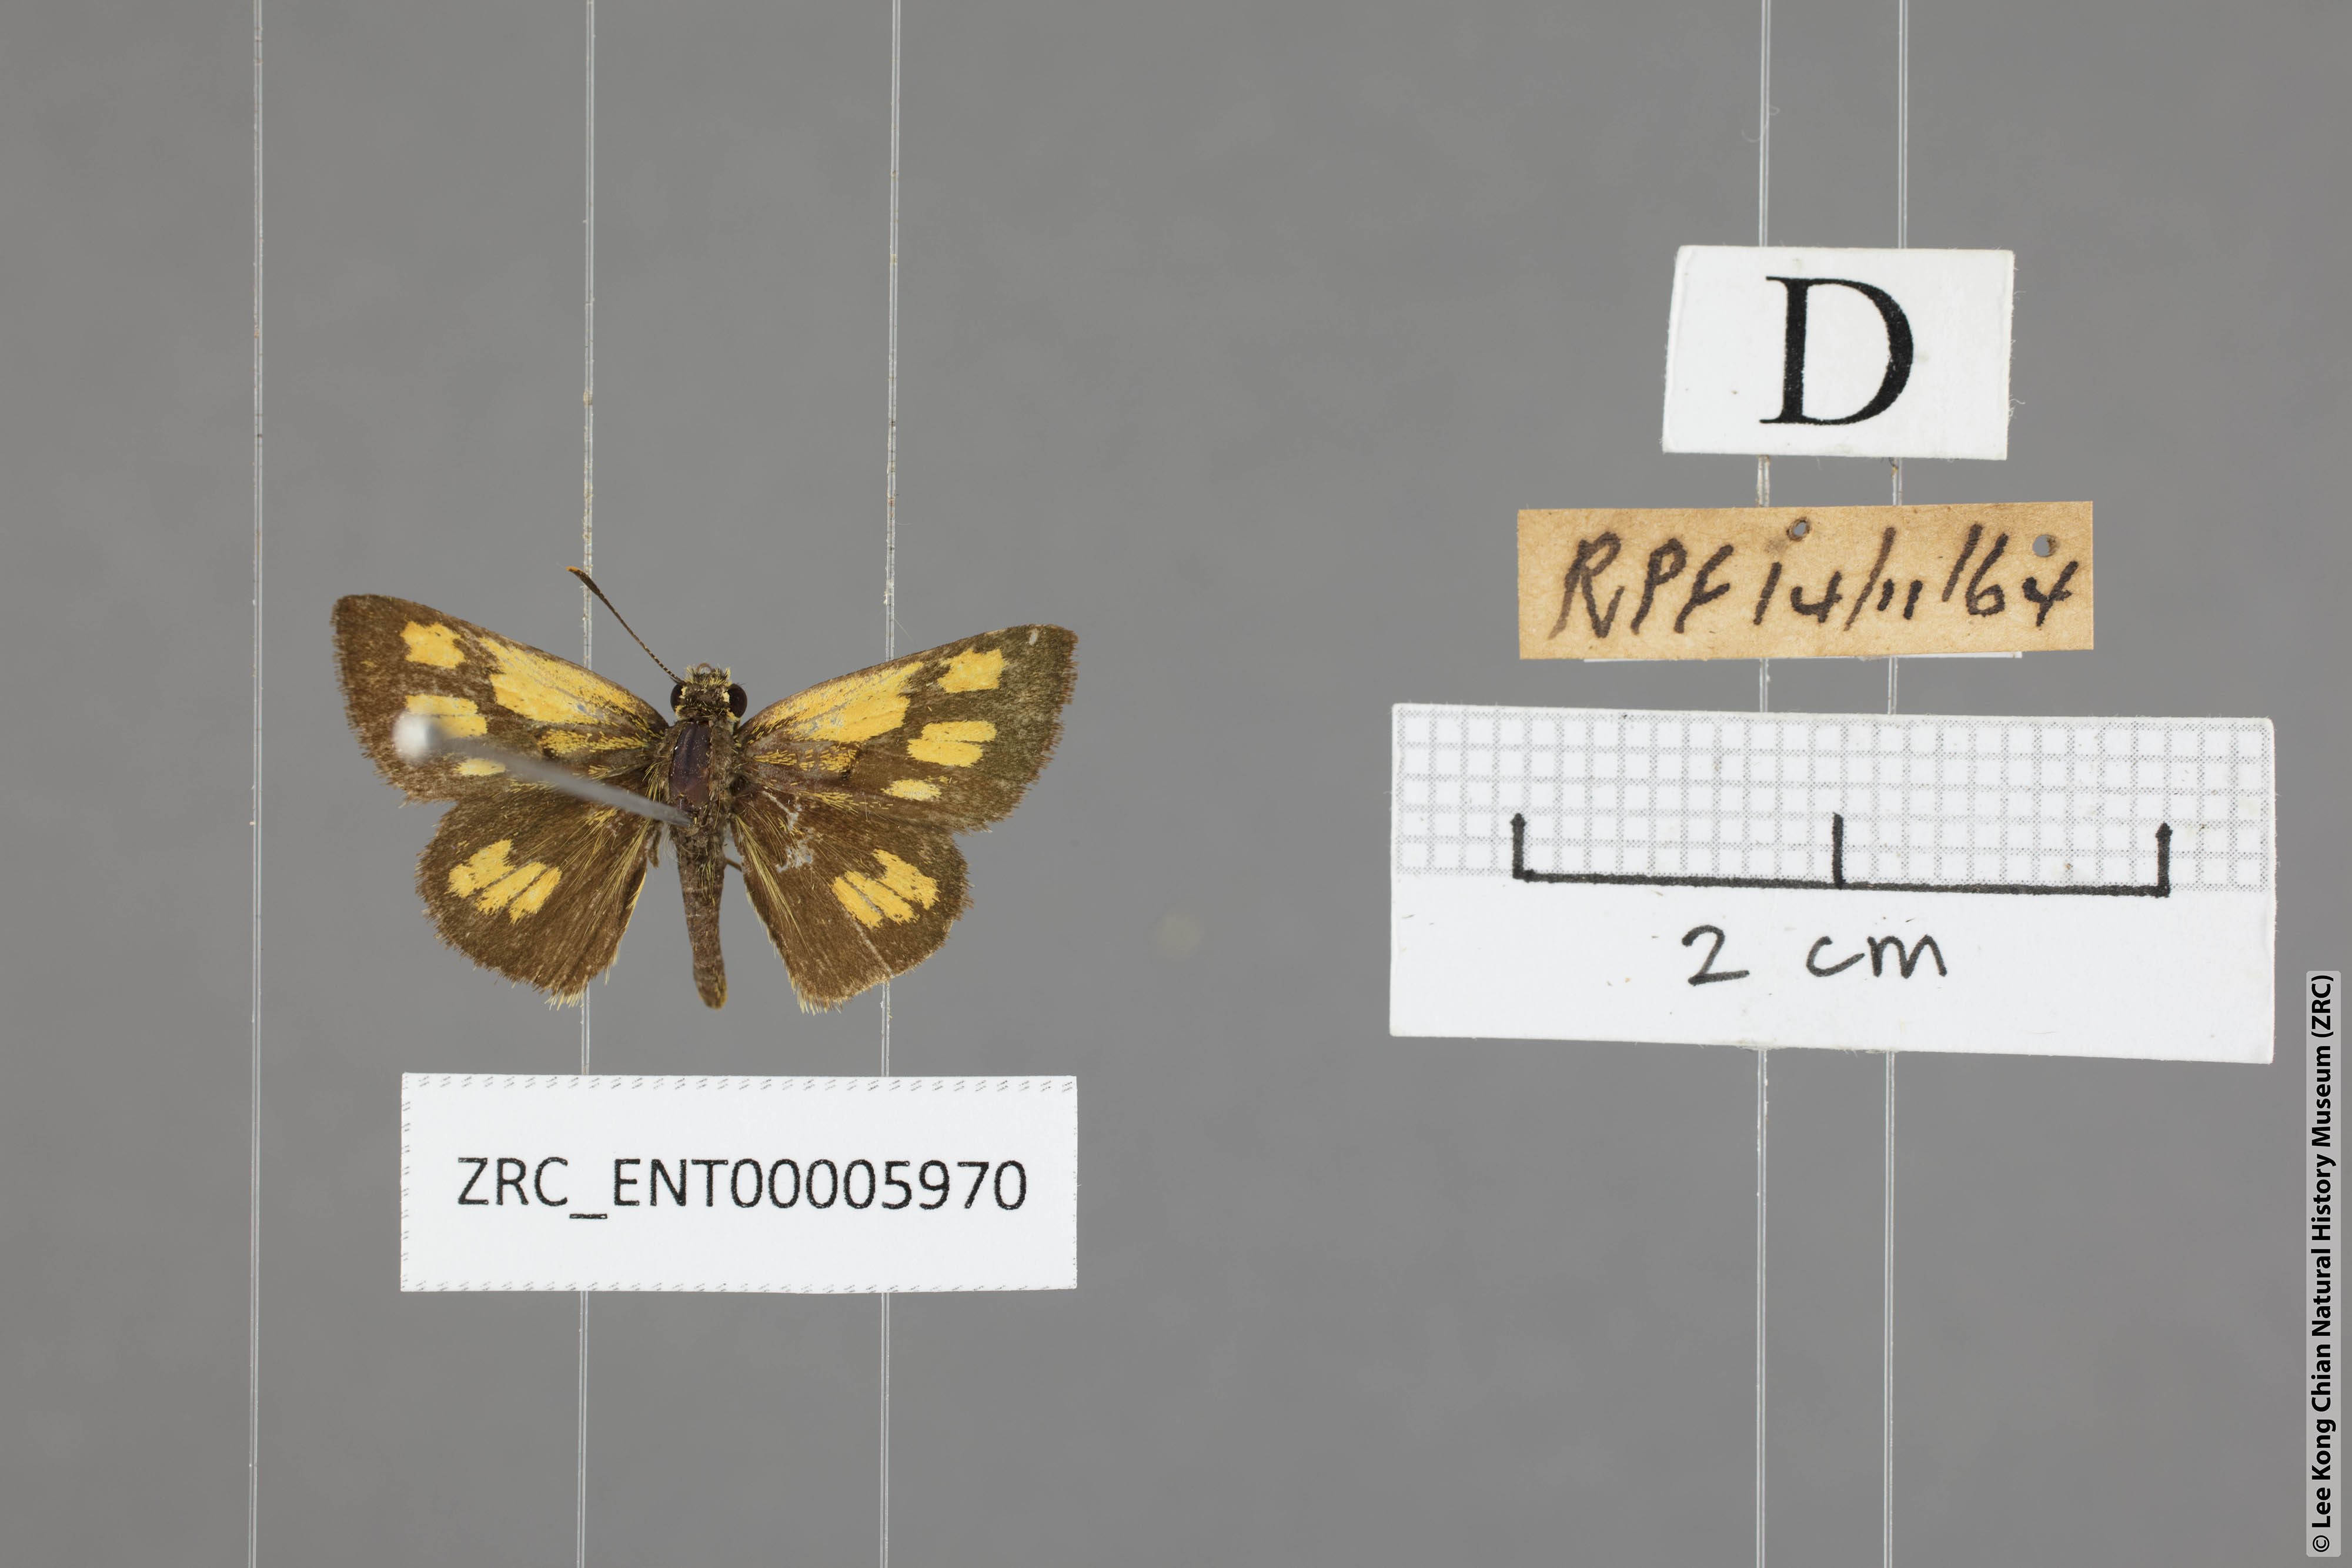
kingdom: Animalia
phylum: Arthropoda
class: Insecta
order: Lepidoptera
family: Hesperiidae
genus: Ampittia
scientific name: Ampittia dioscorides
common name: Common bush hopper
